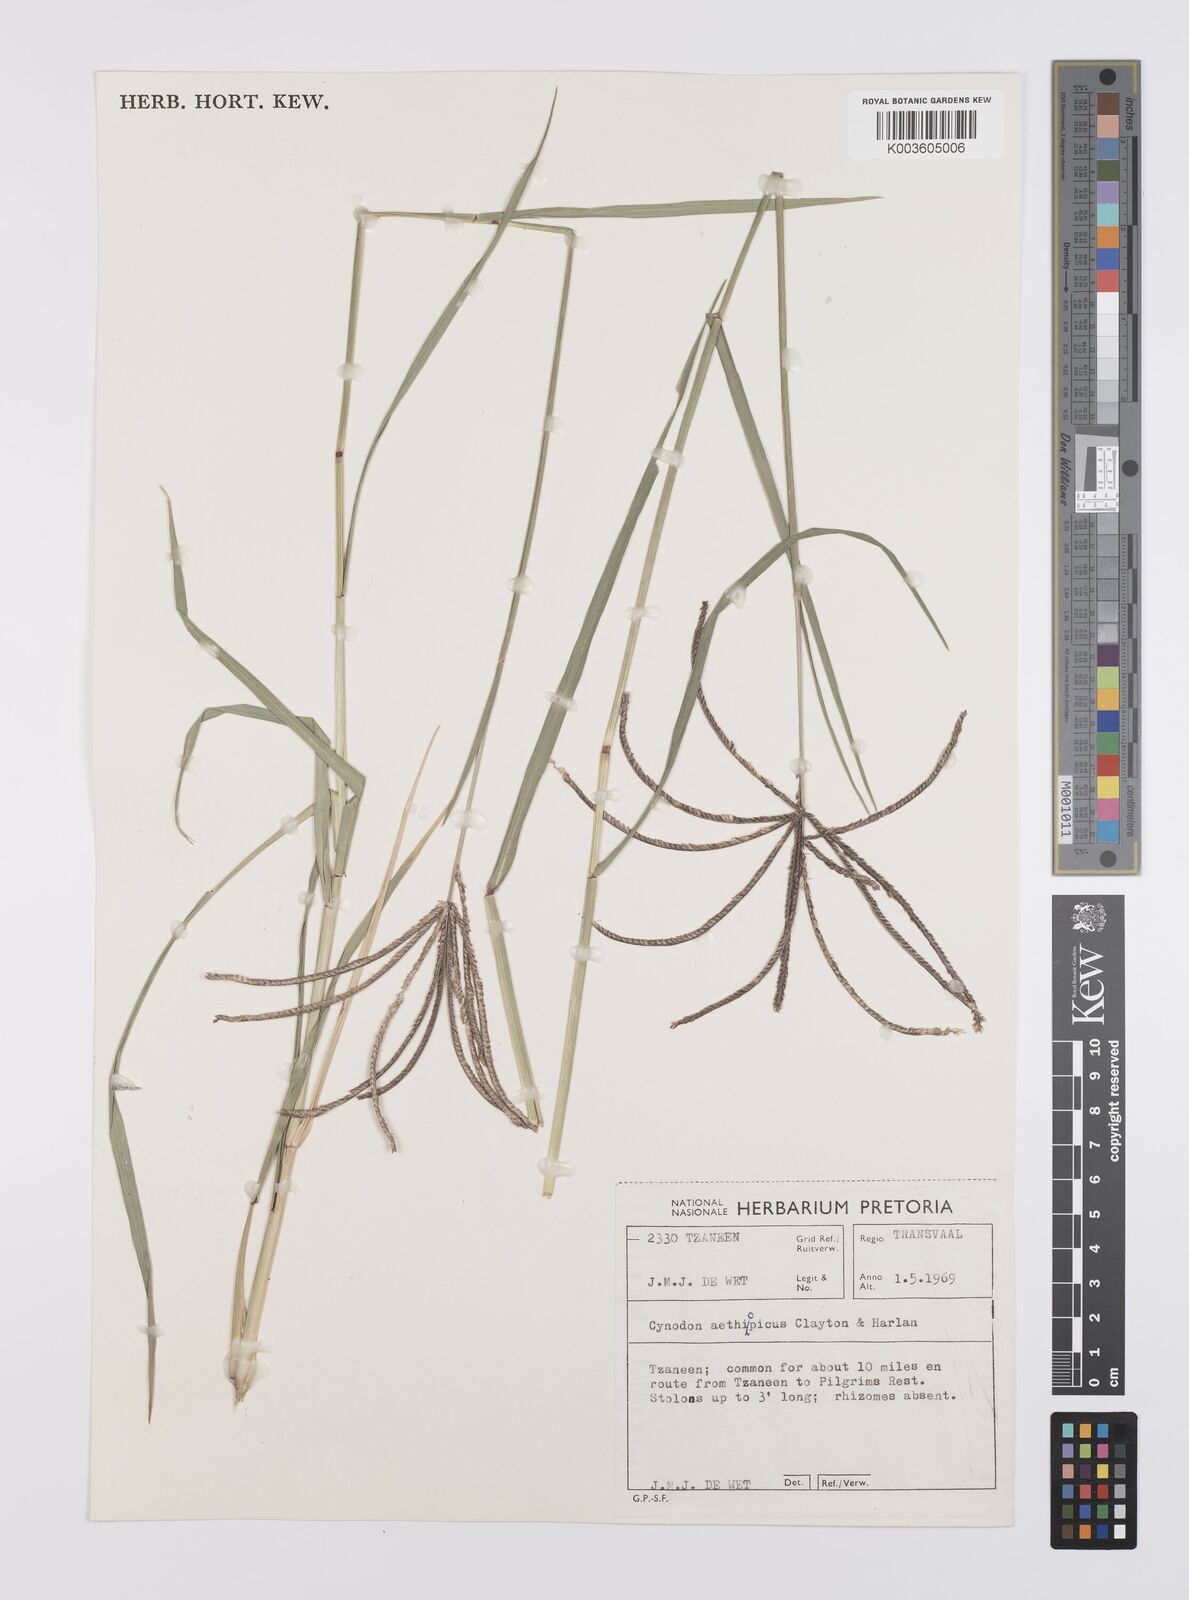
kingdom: Plantae
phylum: Tracheophyta
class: Liliopsida
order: Poales
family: Poaceae
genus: Cynodon
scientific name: Cynodon aethiopicus
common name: Ethiopian dogstooth grass
